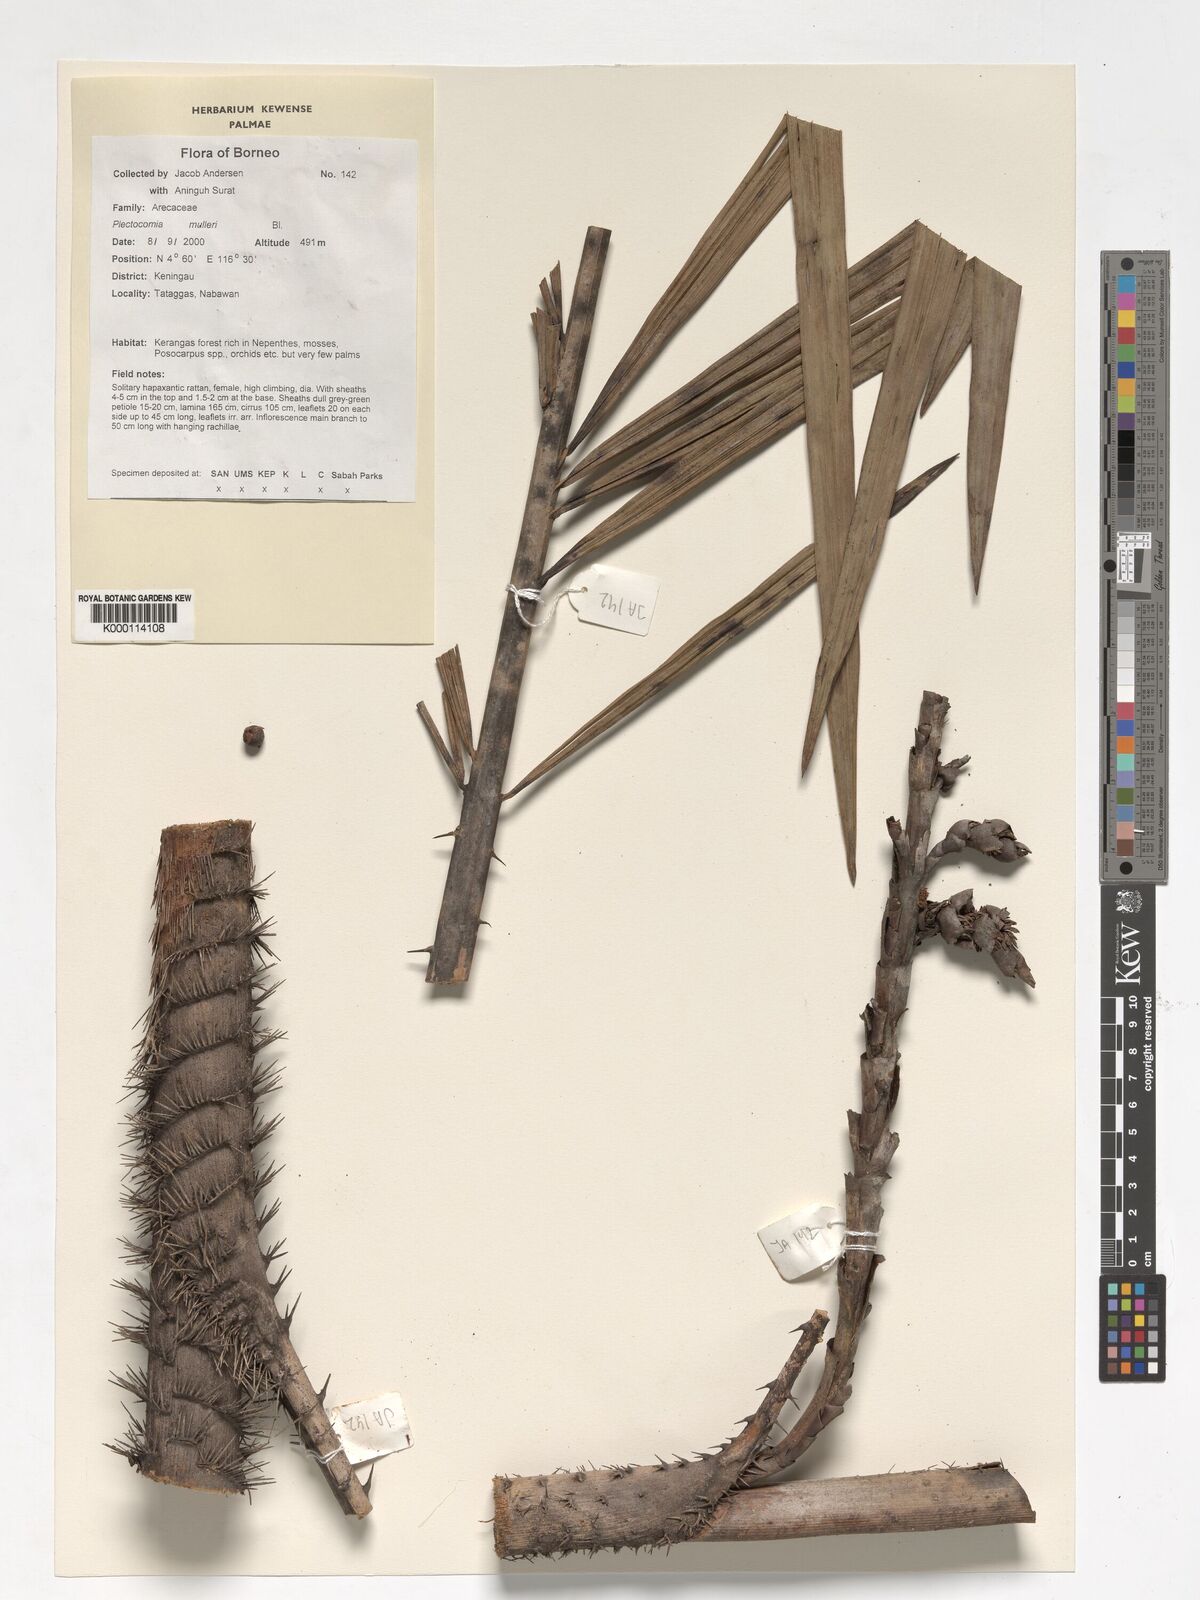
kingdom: Plantae
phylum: Tracheophyta
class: Liliopsida
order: Arecales
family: Arecaceae
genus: Plectocomia
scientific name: Plectocomia mulleri
